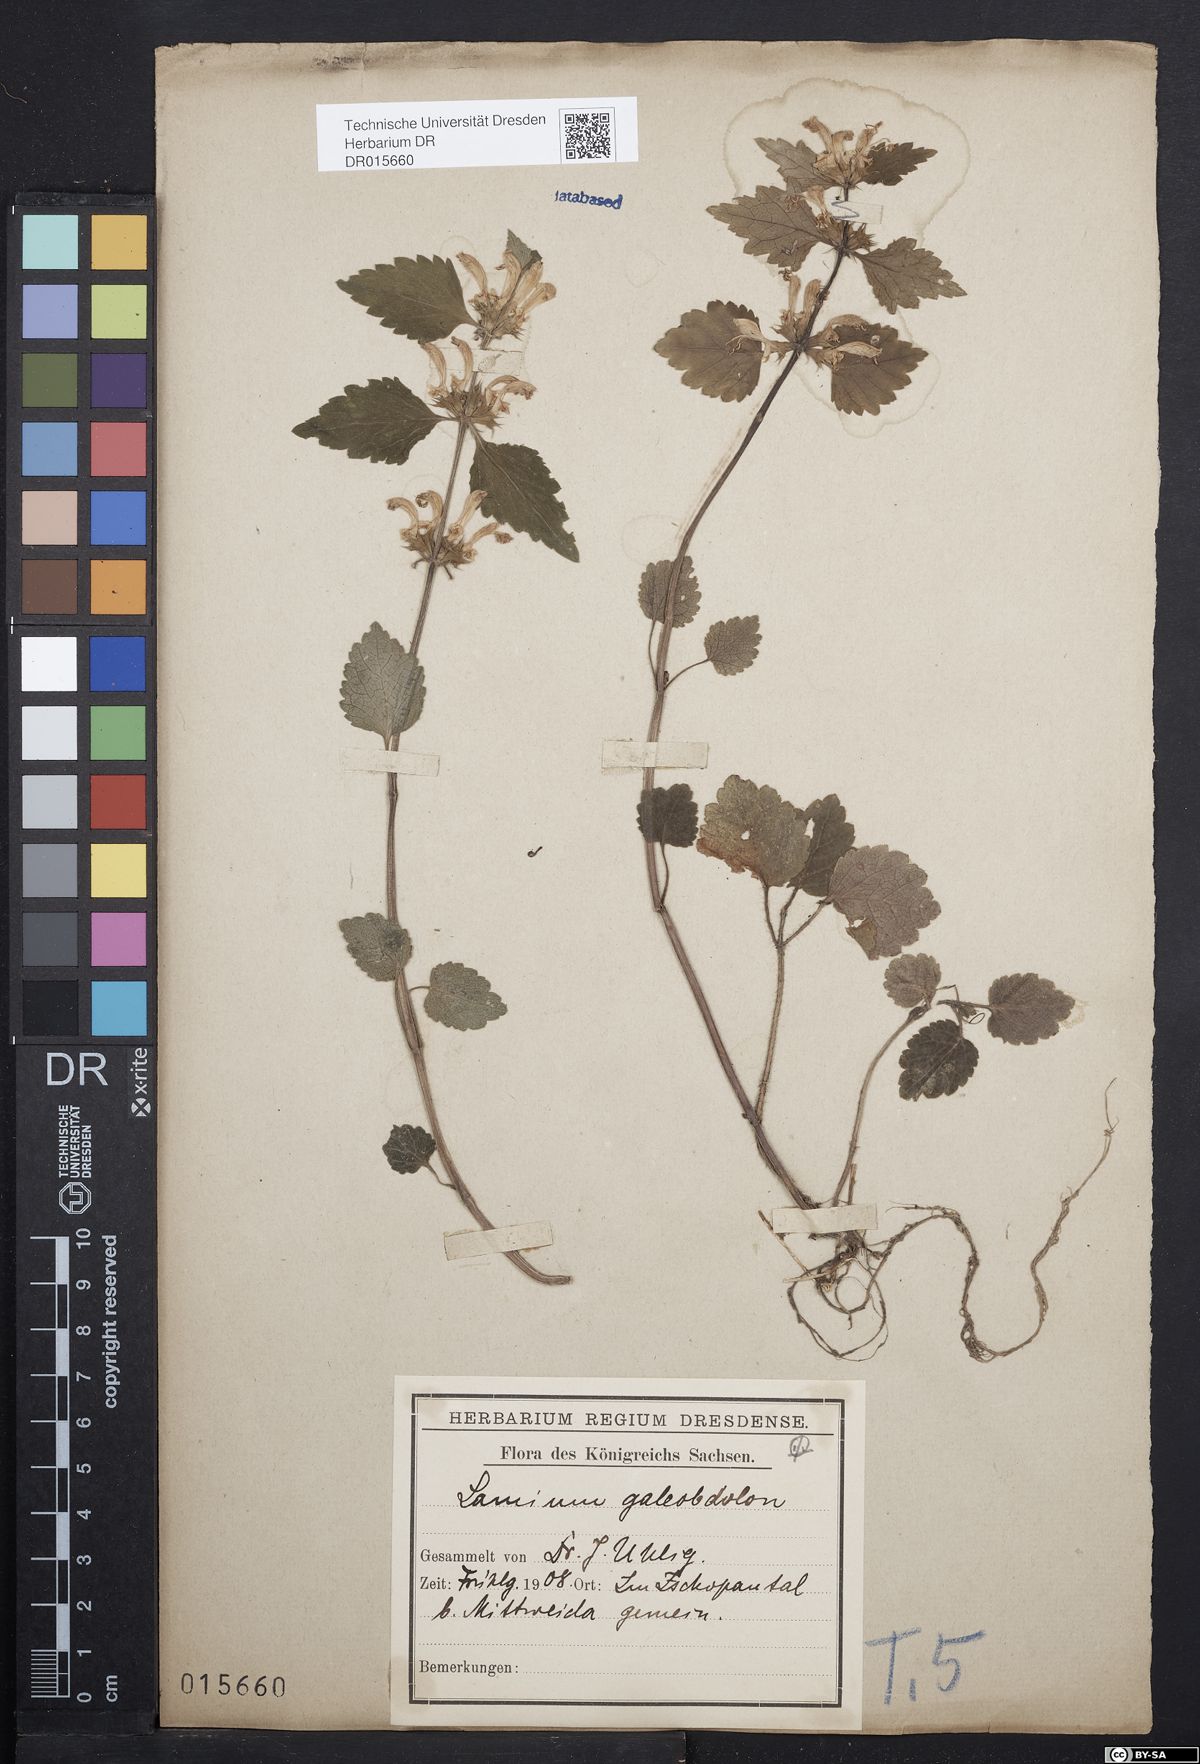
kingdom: Plantae
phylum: Tracheophyta
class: Magnoliopsida
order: Lamiales
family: Lamiaceae
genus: Lamium
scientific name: Lamium galeobdolon
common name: Yellow archangel
